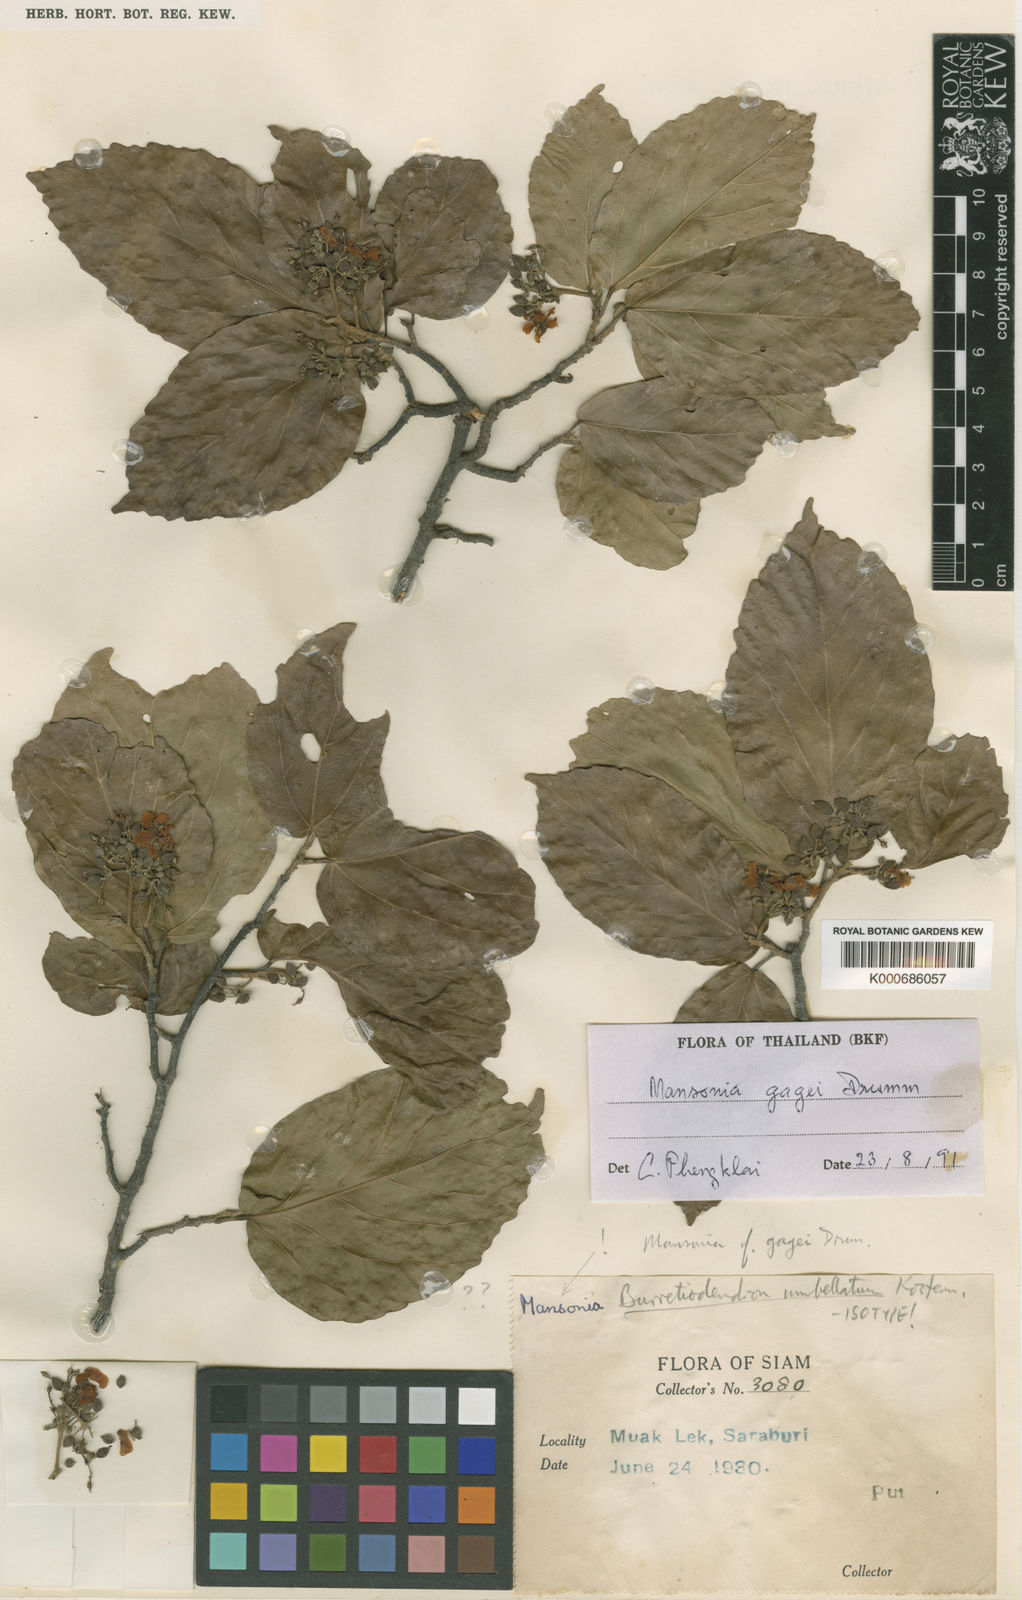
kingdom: Plantae
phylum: Tracheophyta
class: Magnoliopsida
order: Malvales
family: Malvaceae
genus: Mansonia
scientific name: Mansonia
